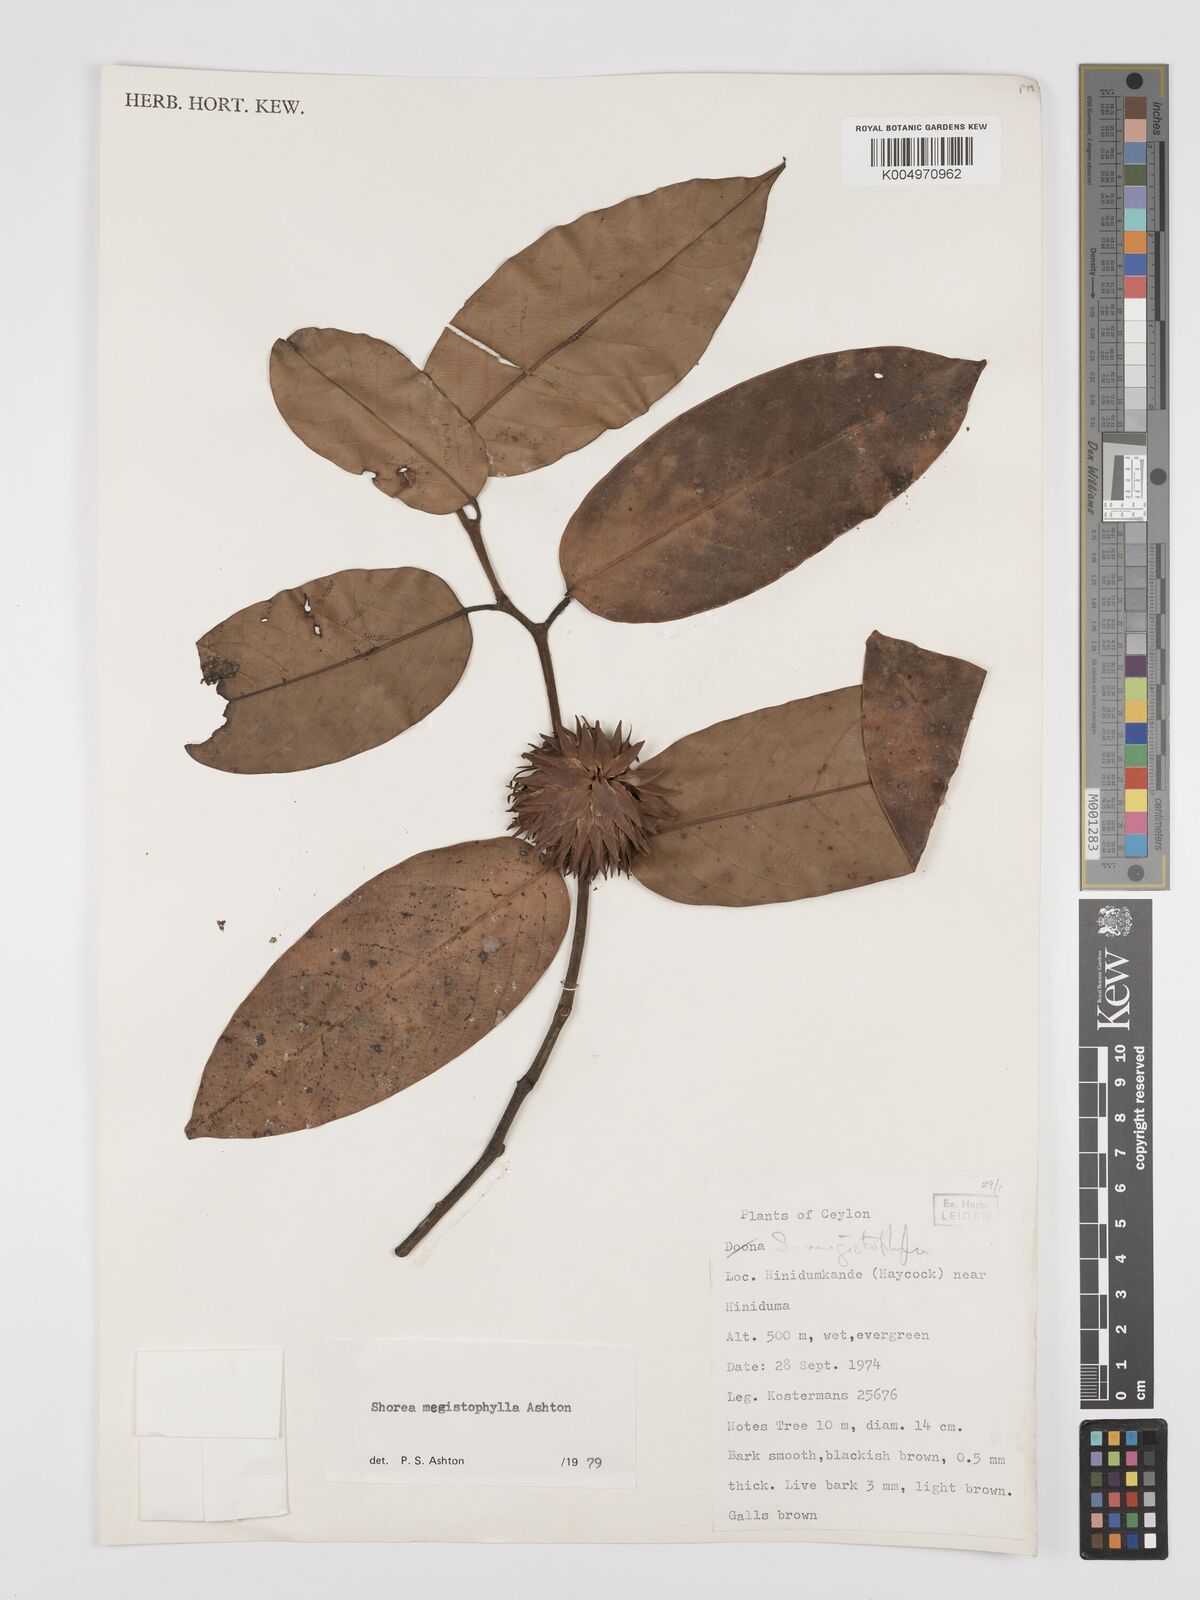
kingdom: Plantae
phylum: Tracheophyta
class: Magnoliopsida
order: Malvales
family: Dipterocarpaceae
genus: Doona
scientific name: Doona macrophylla
